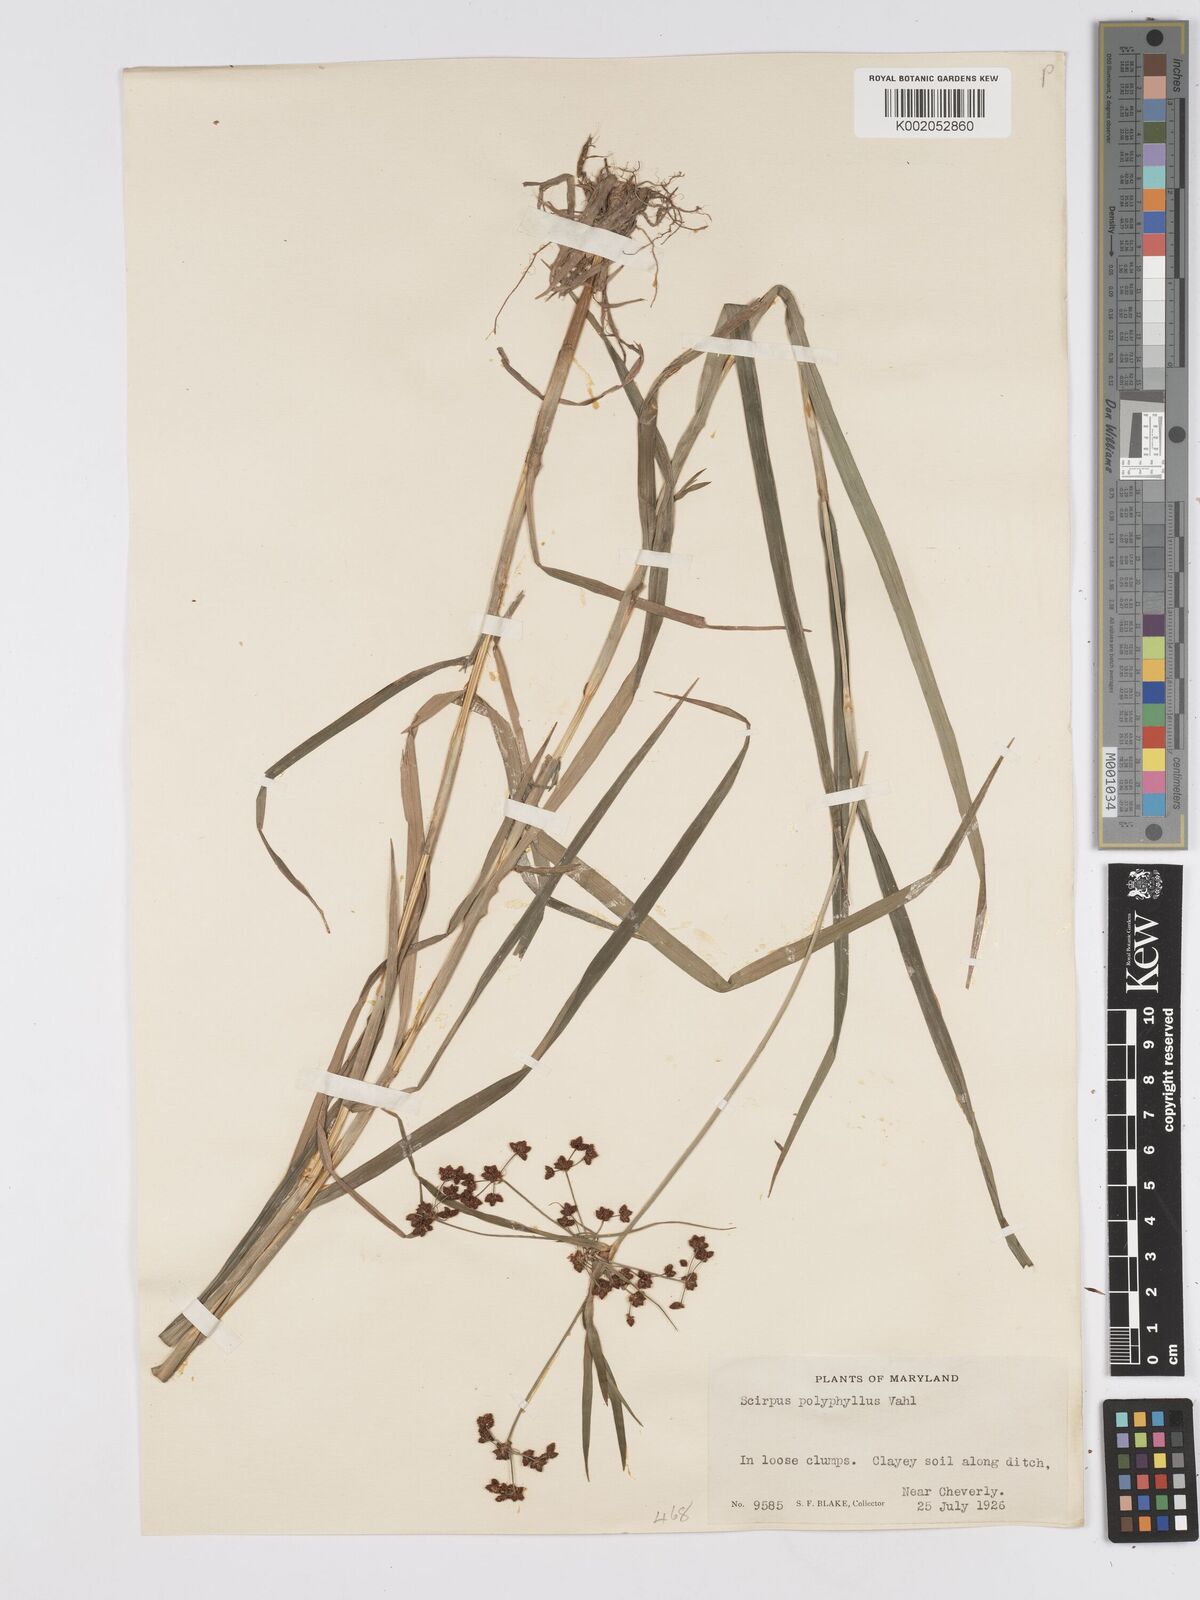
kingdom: Plantae
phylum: Tracheophyta
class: Liliopsida
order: Poales
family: Cyperaceae
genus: Scirpus
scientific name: Scirpus polyphyllus
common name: Leafy bulrush
